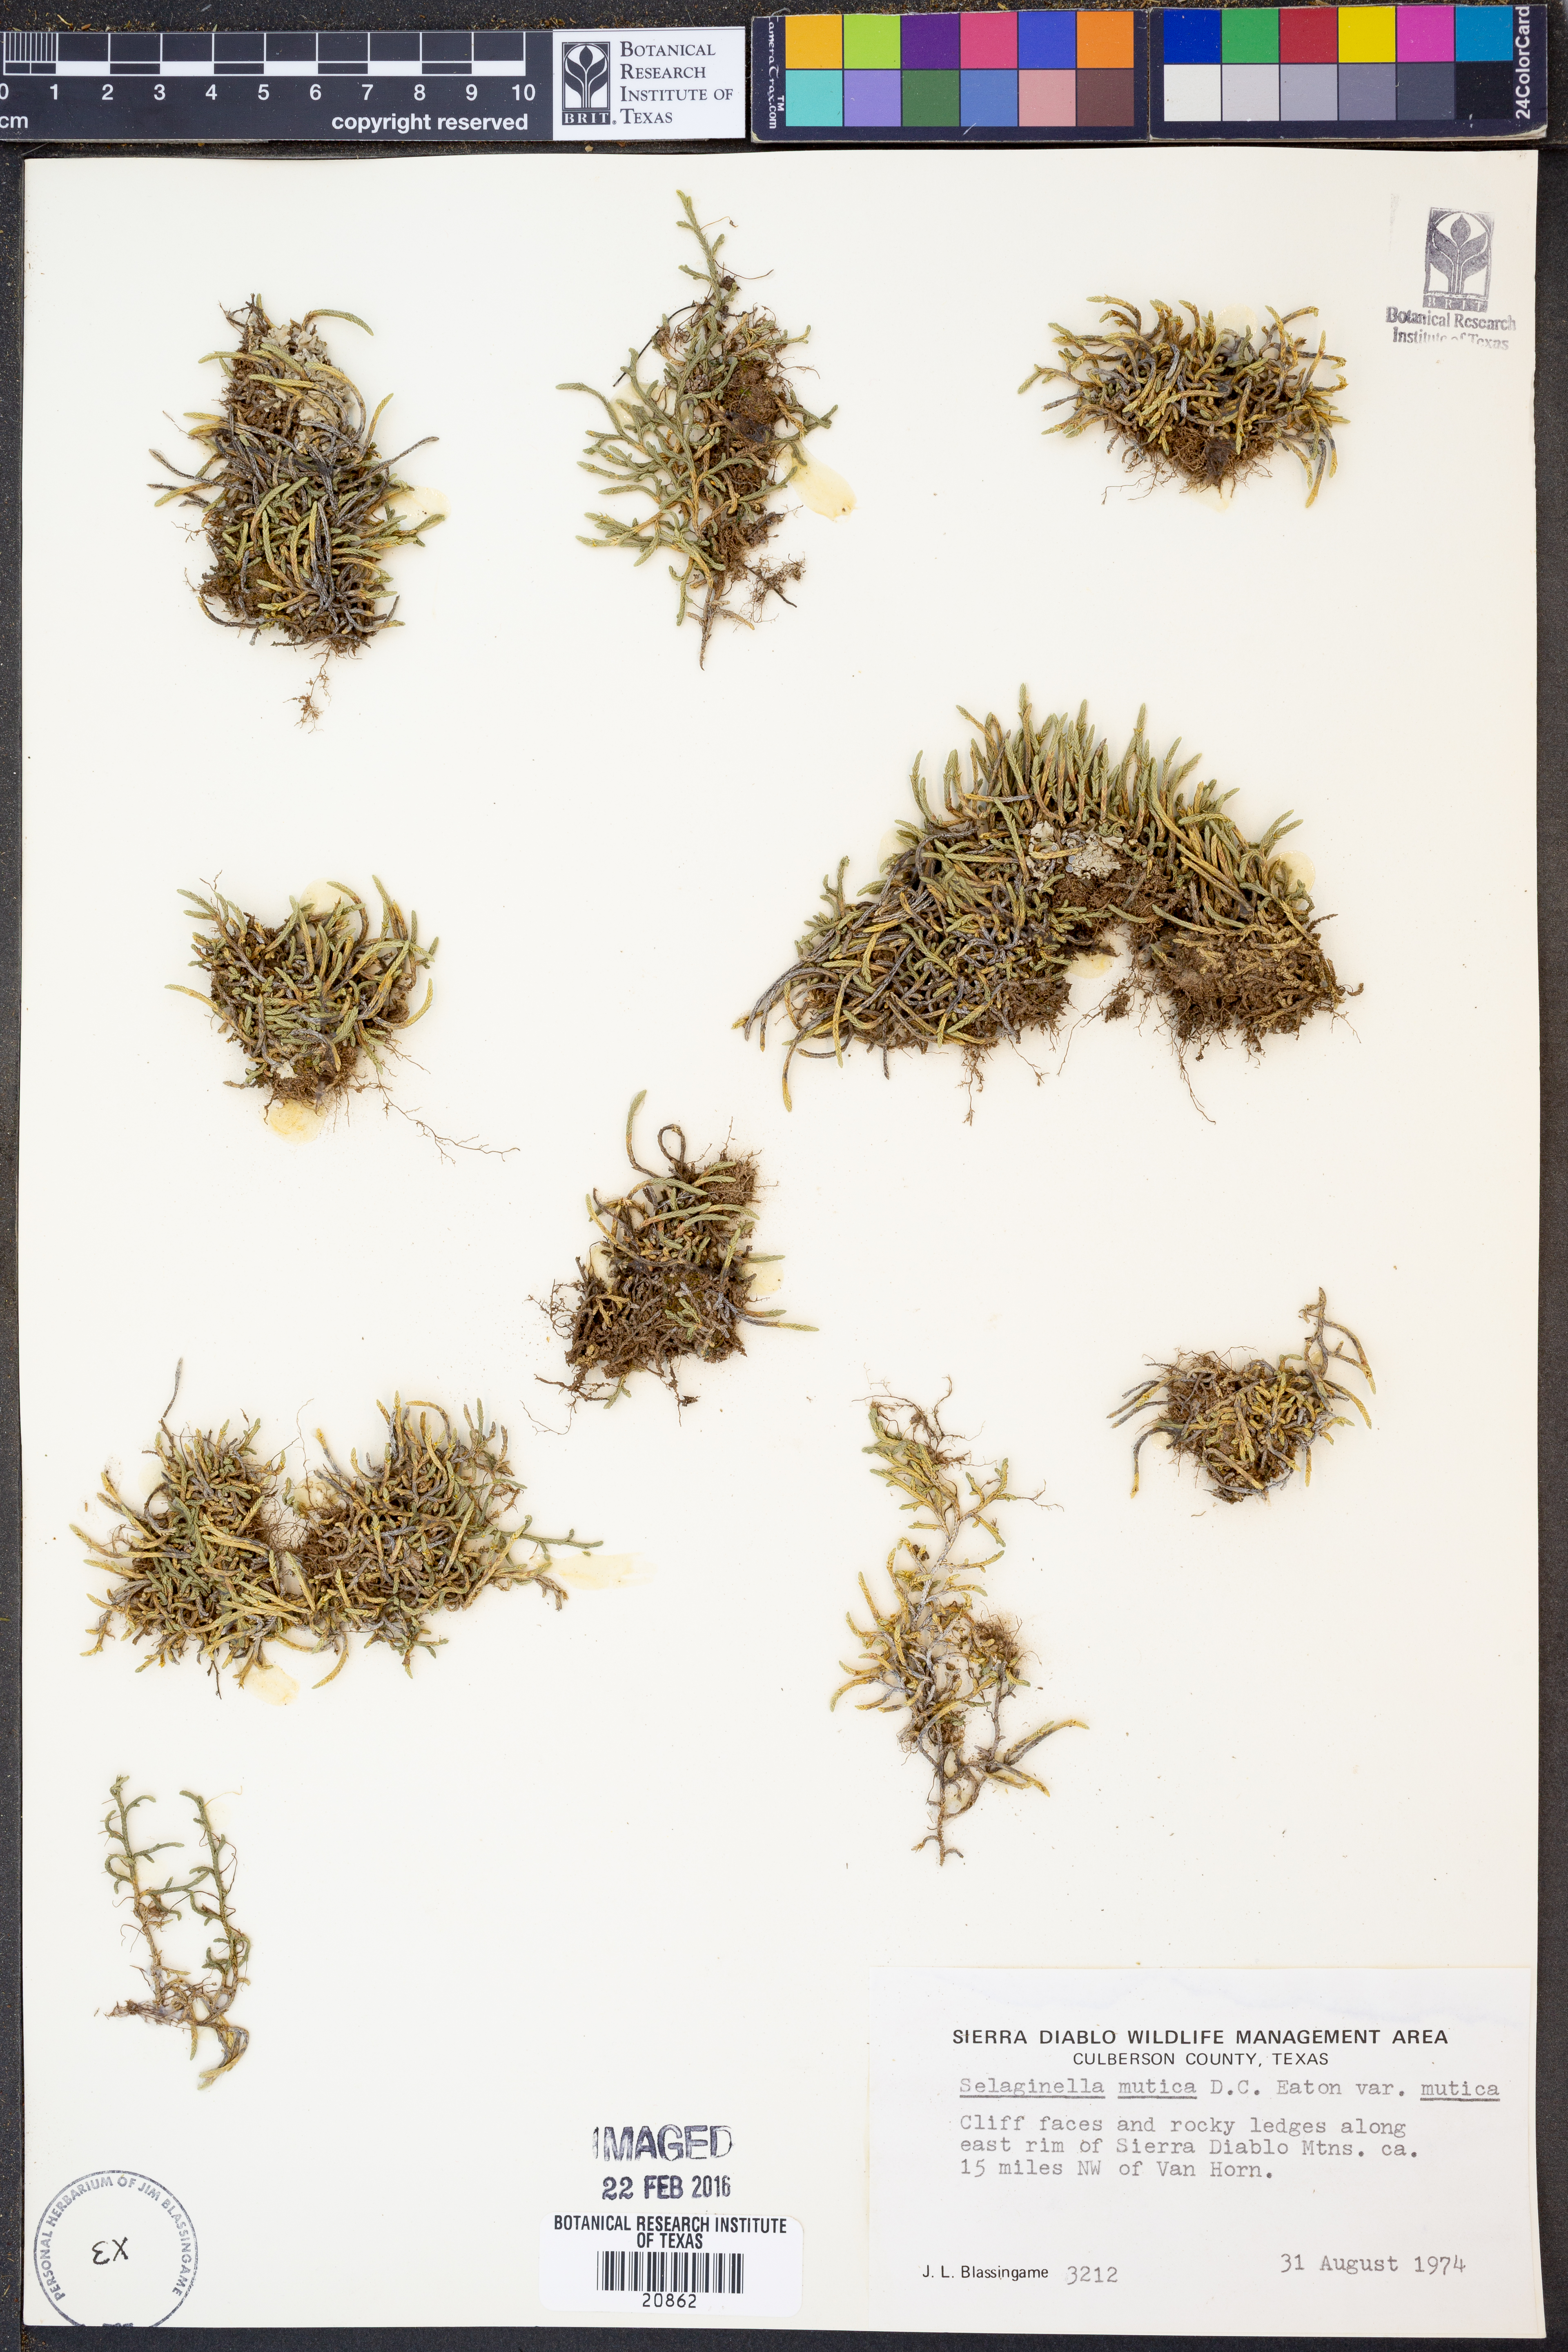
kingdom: Plantae
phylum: Tracheophyta
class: Lycopodiopsida
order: Selaginellales
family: Selaginellaceae
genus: Selaginella
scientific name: Selaginella mutica
